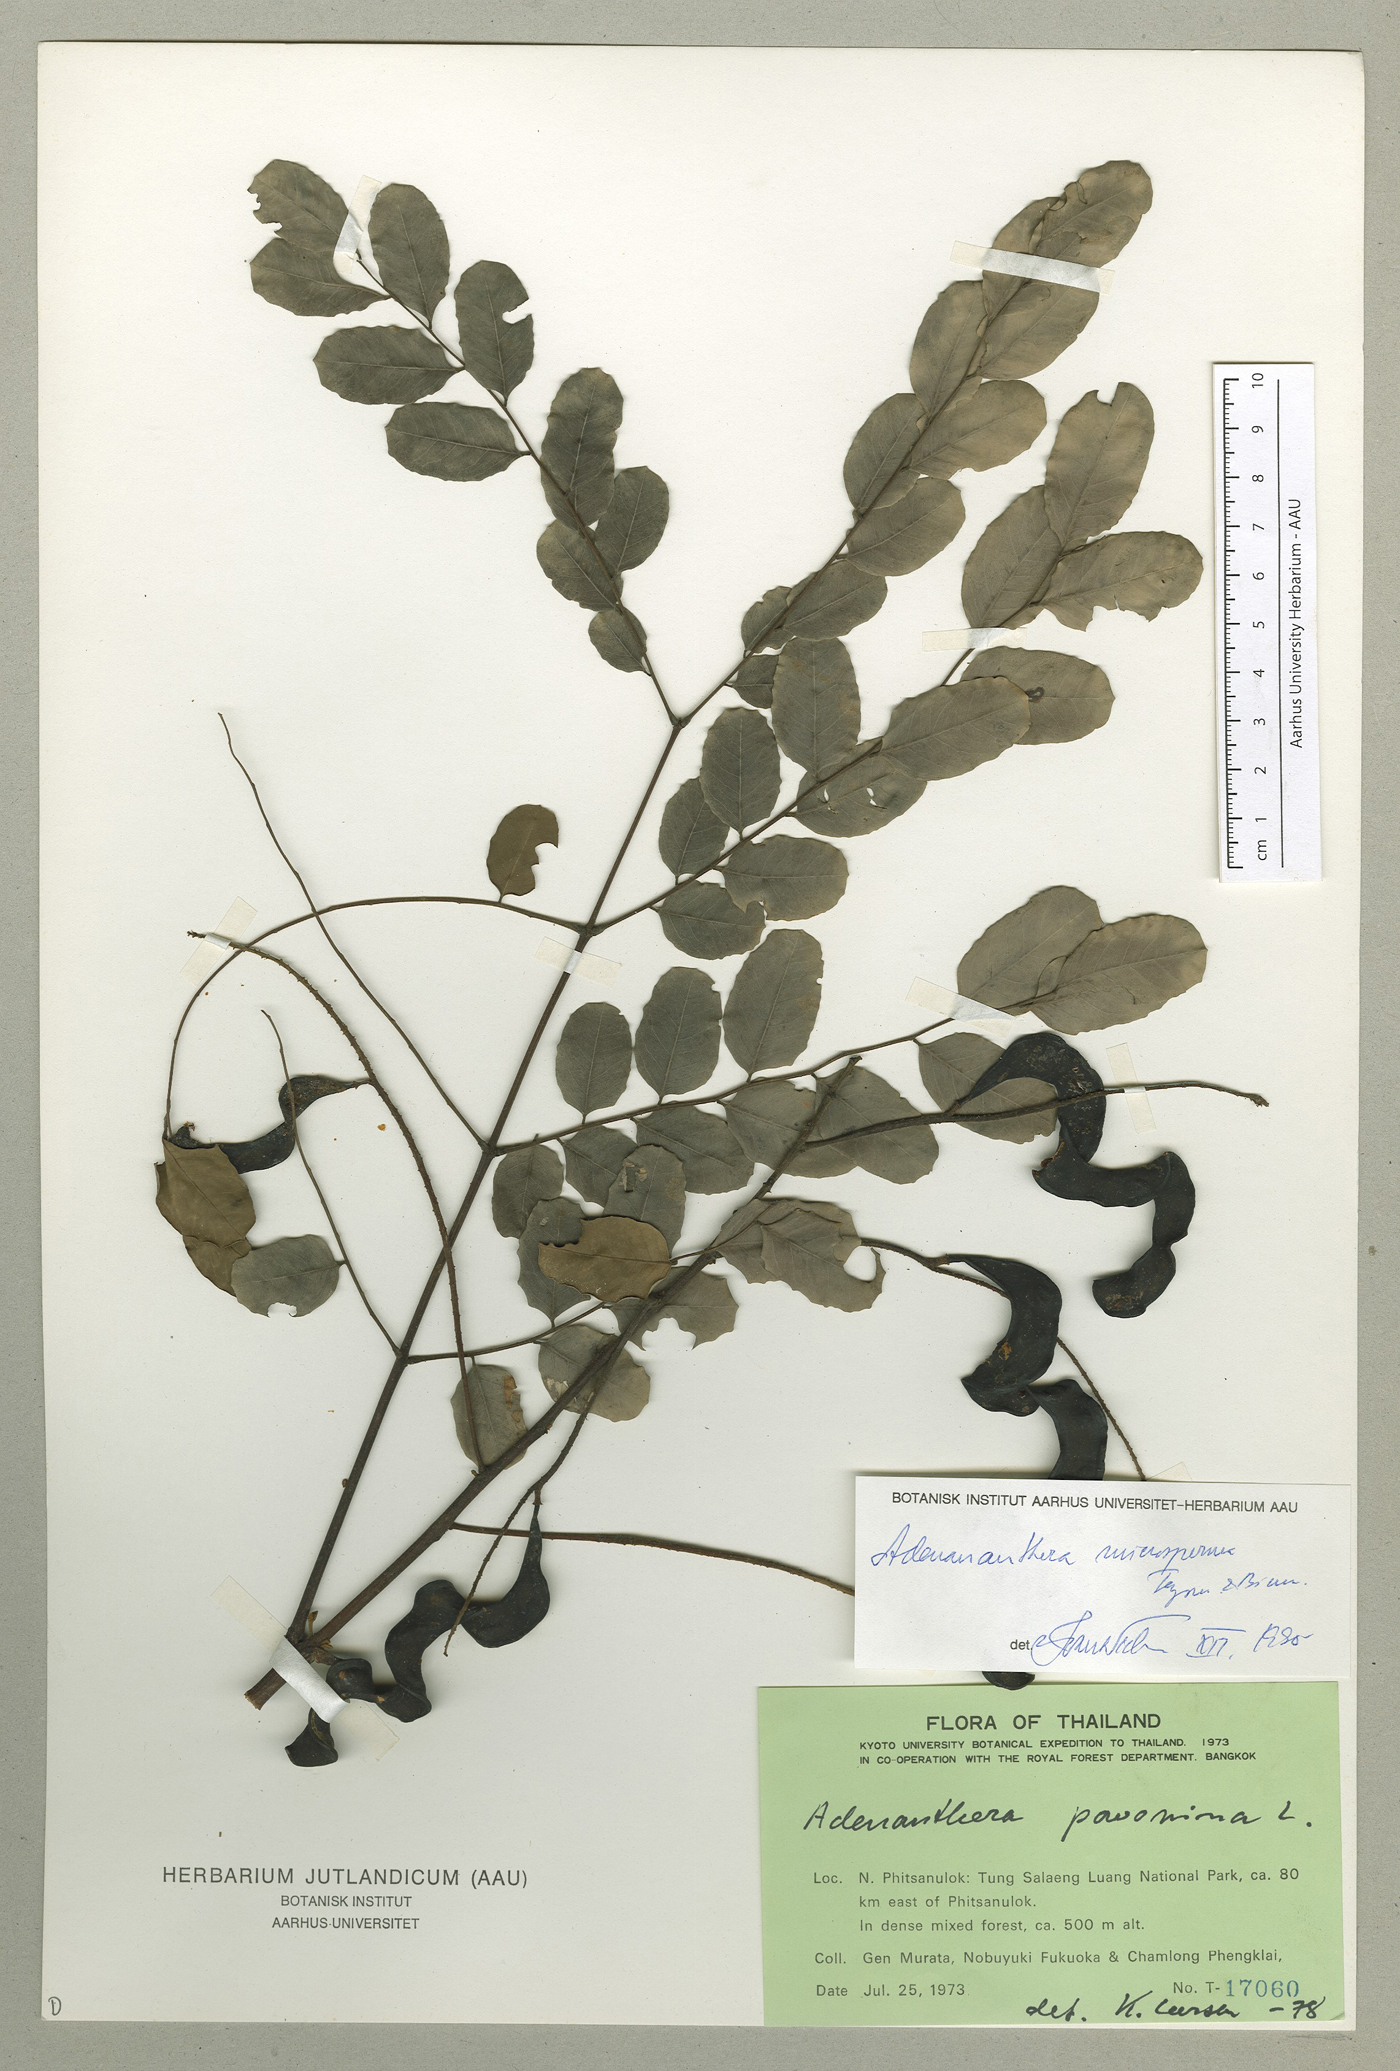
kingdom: Plantae
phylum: Tracheophyta
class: Magnoliopsida
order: Fabales
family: Fabaceae
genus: Adenanthera
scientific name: Adenanthera microsperma
